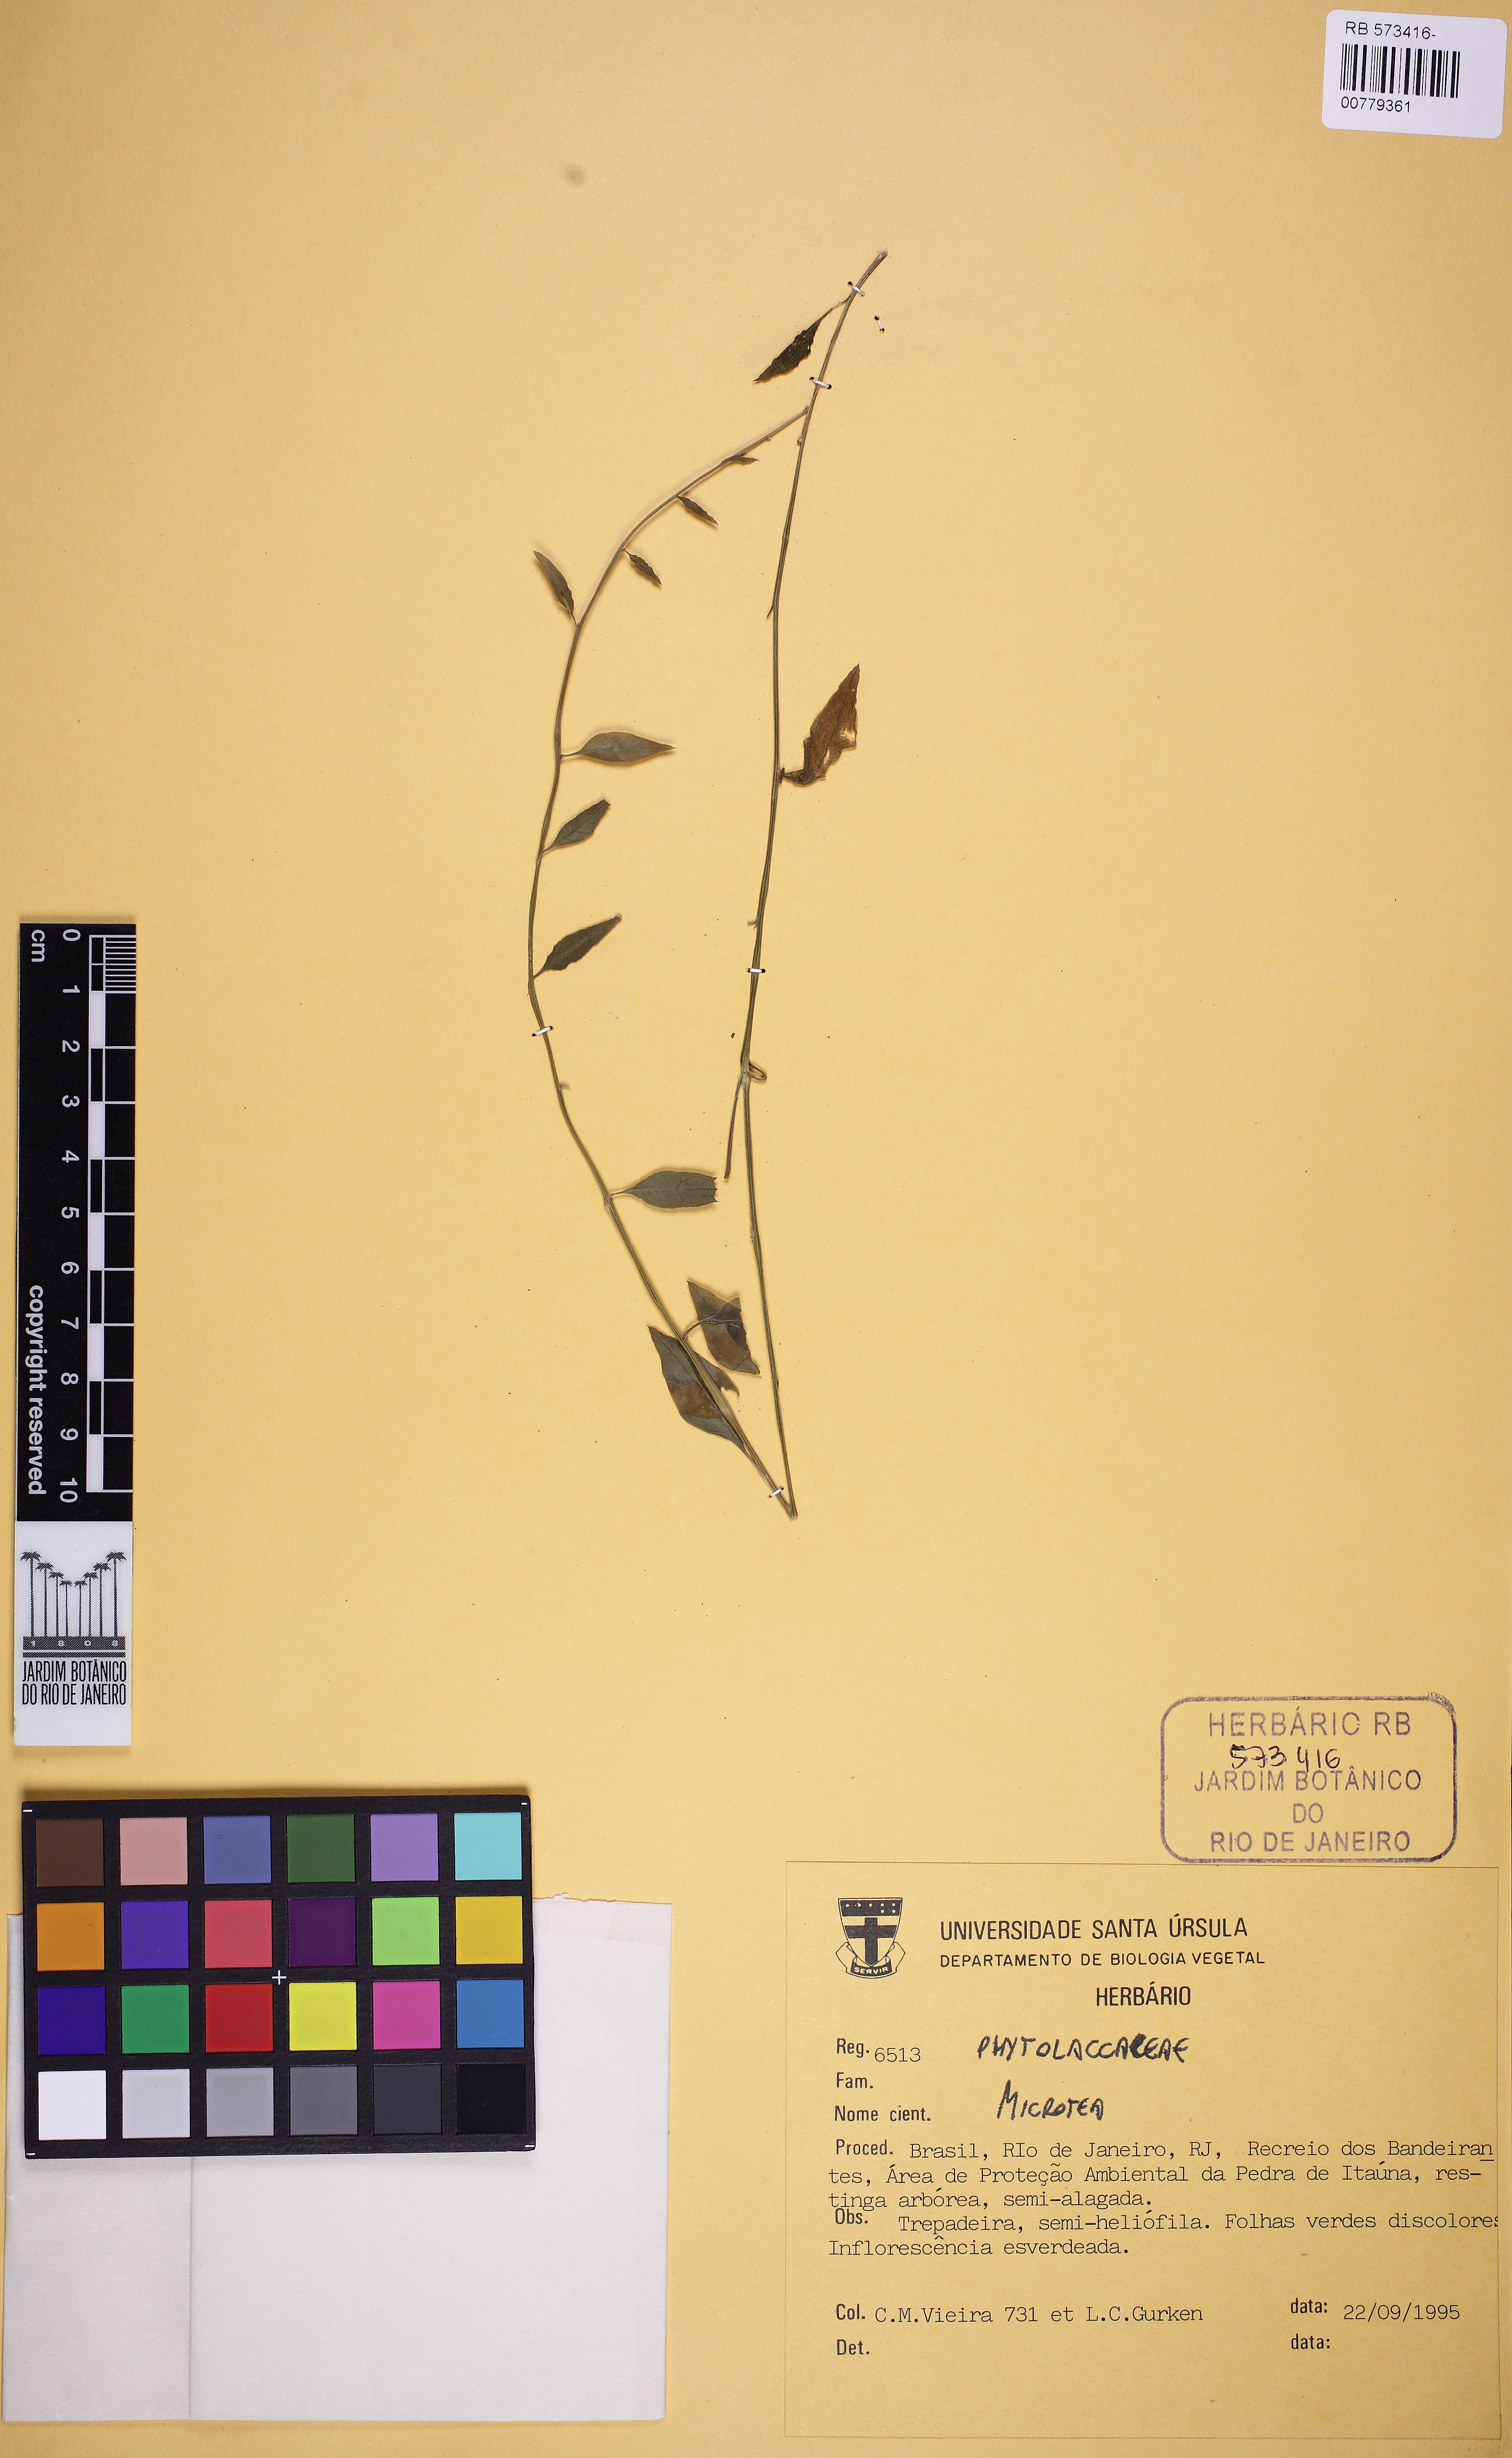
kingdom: Plantae
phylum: Tracheophyta
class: Magnoliopsida
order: Caryophyllales
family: Microteaceae
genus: Microtea
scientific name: Microtea
